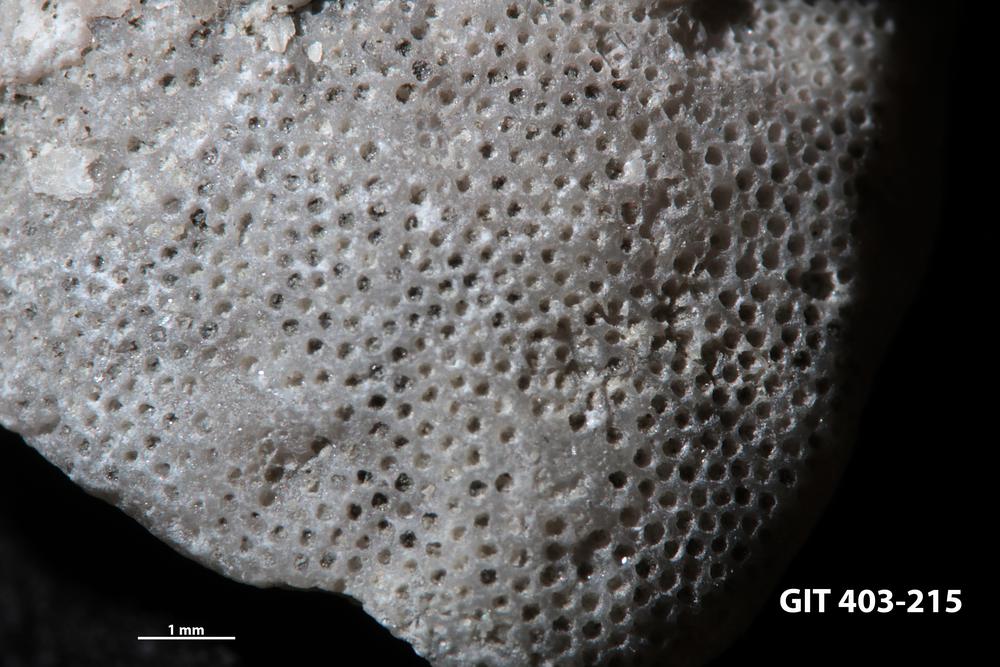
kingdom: Animalia
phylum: Bryozoa
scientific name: Bryozoa
